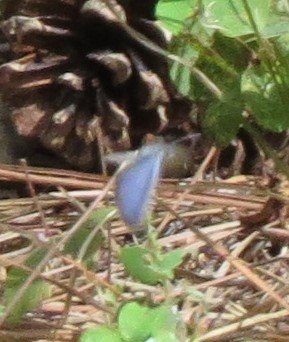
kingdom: Animalia
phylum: Arthropoda
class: Insecta
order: Lepidoptera
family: Lycaenidae
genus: Elkalyce
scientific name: Elkalyce comyntas
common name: Eastern Tailed-Blue
